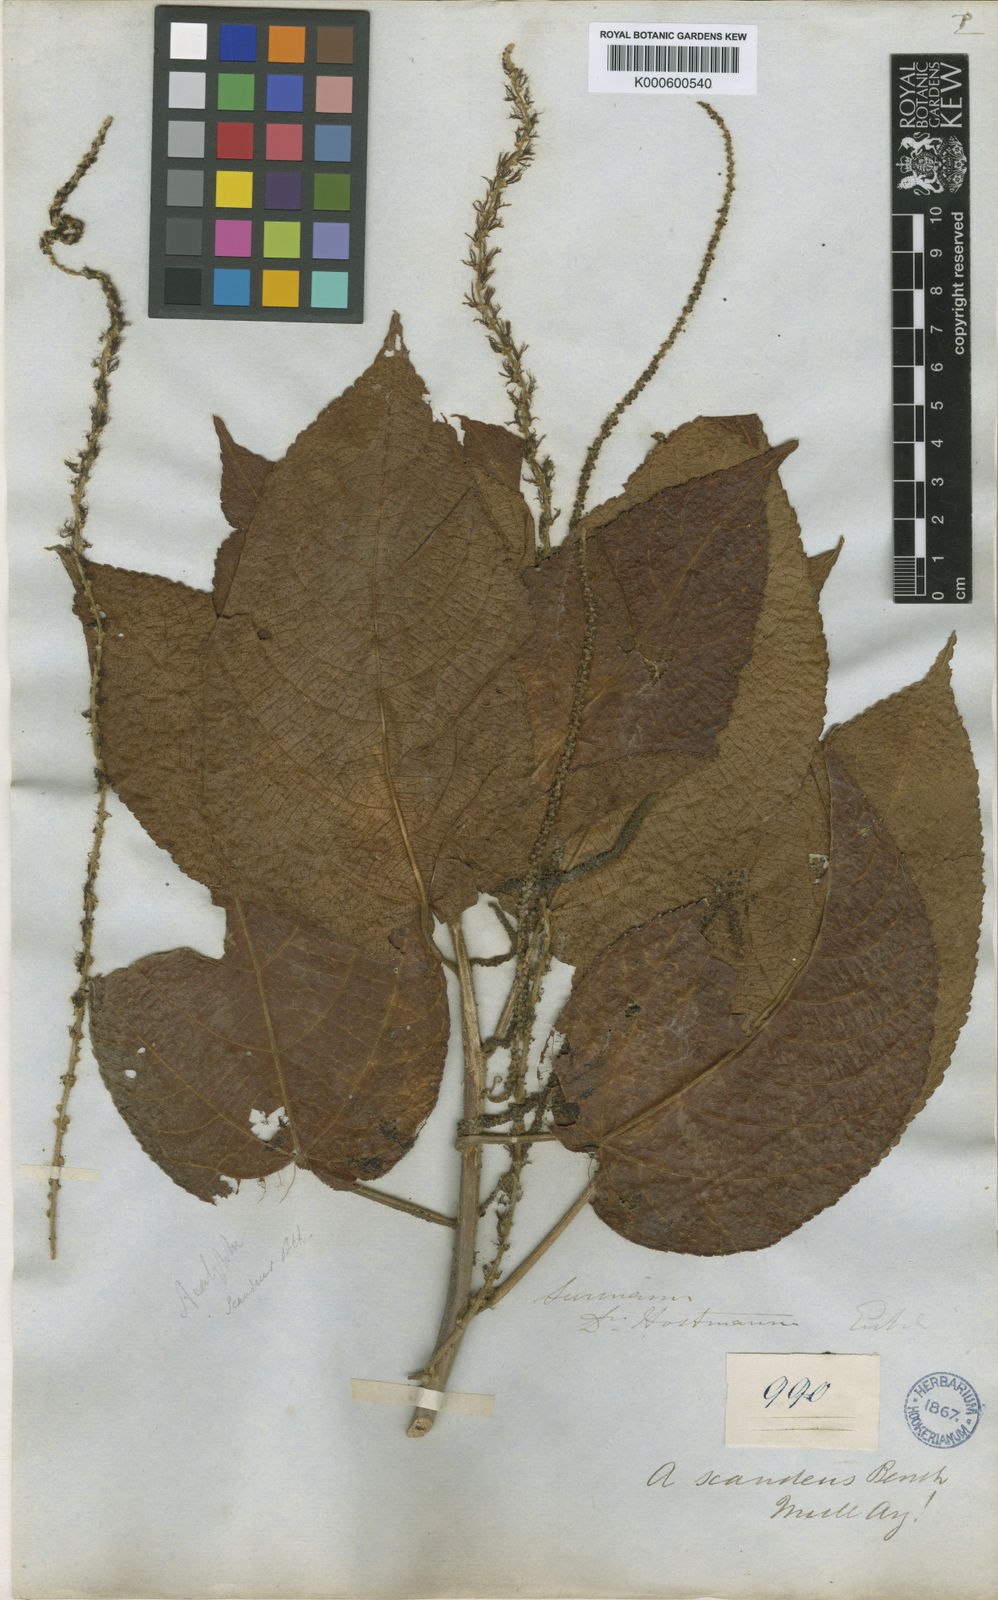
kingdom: Plantae
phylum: Tracheophyta
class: Magnoliopsida
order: Malpighiales
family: Euphorbiaceae
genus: Acalypha
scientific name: Acalypha scandens
